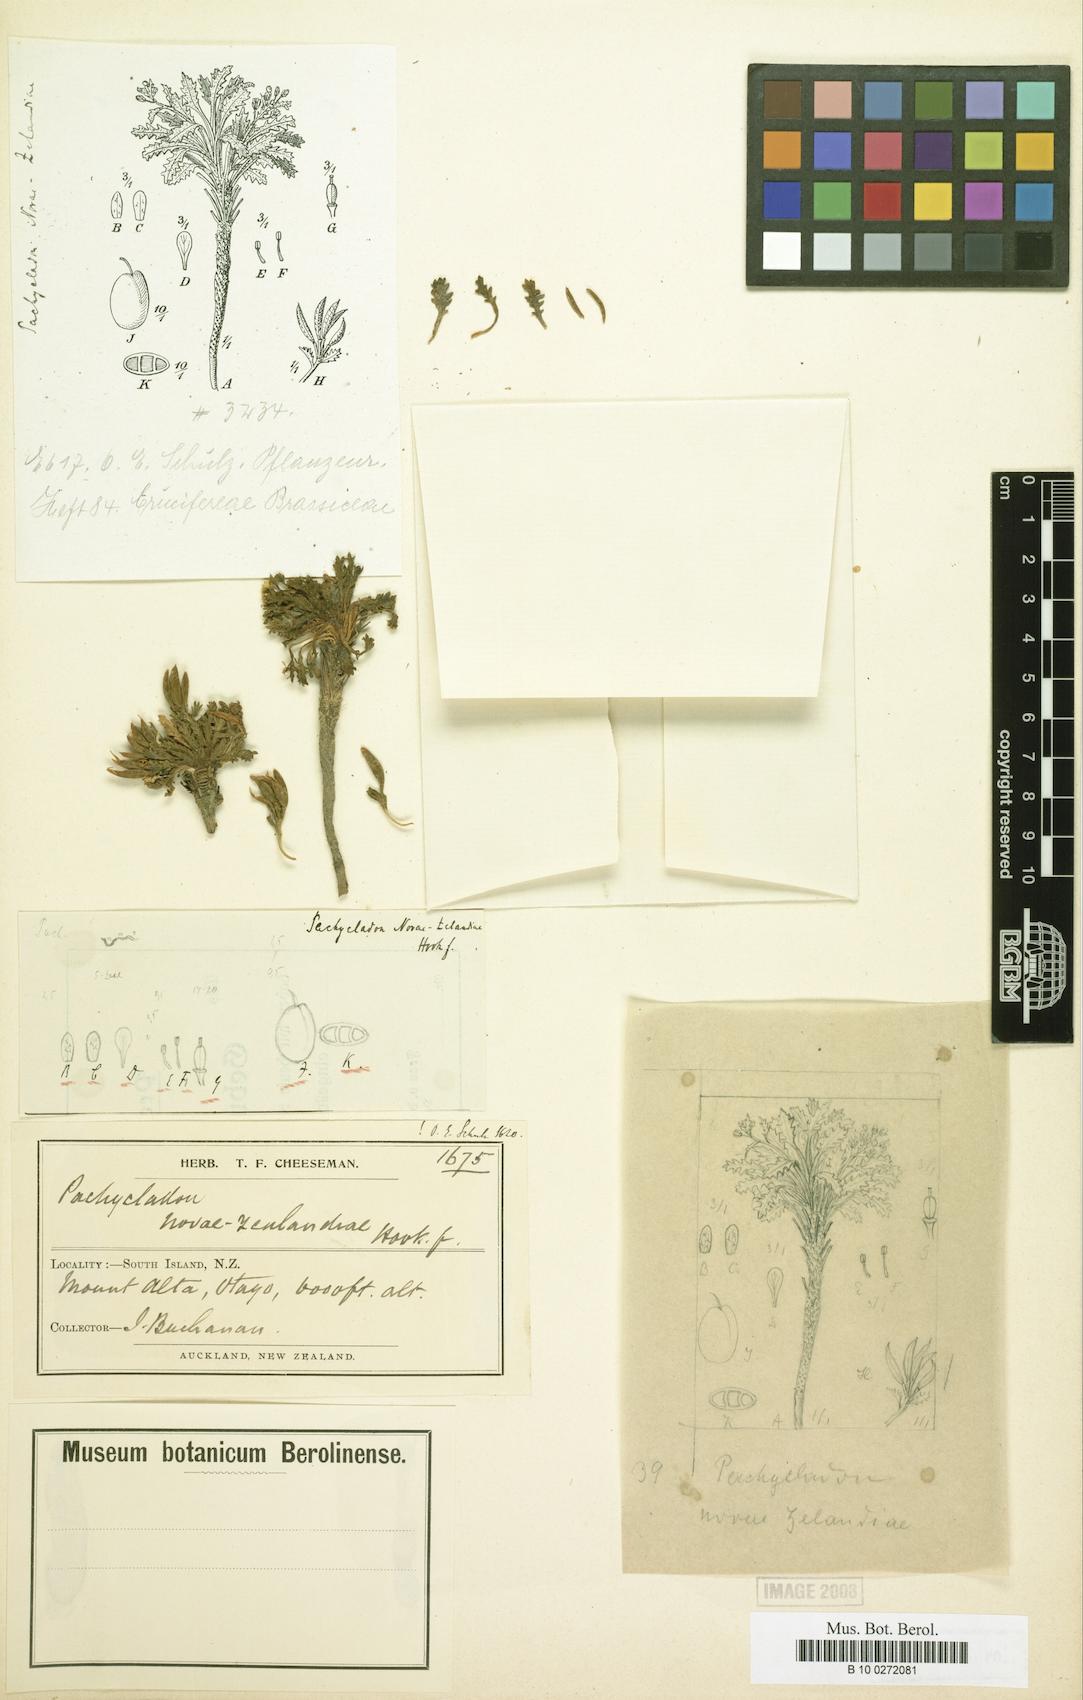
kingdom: Plantae
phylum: Tracheophyta
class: Magnoliopsida
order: Brassicales
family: Brassicaceae
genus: Pachycladon
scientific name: Pachycladon novae-zelandiae
